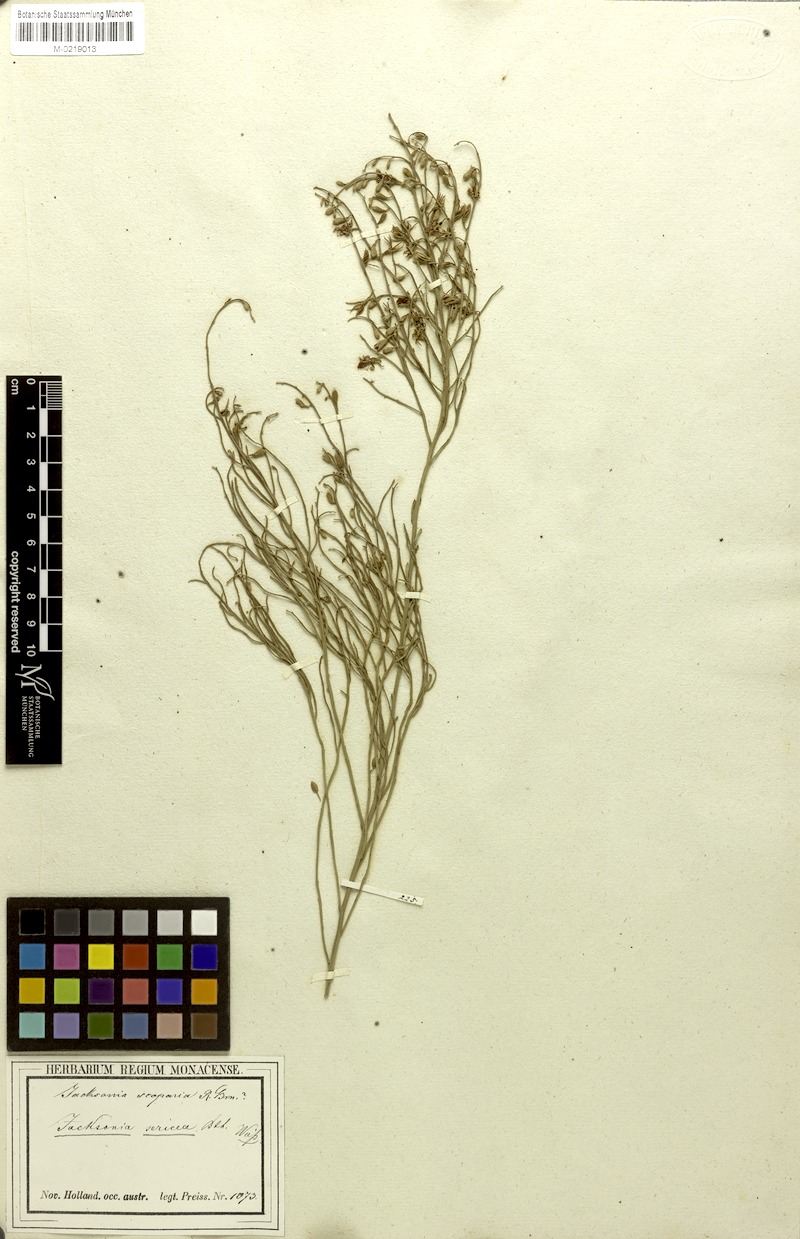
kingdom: Plantae
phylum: Tracheophyta
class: Magnoliopsida
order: Fabales
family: Fabaceae
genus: Jacksonia
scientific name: Jacksonia sericea
